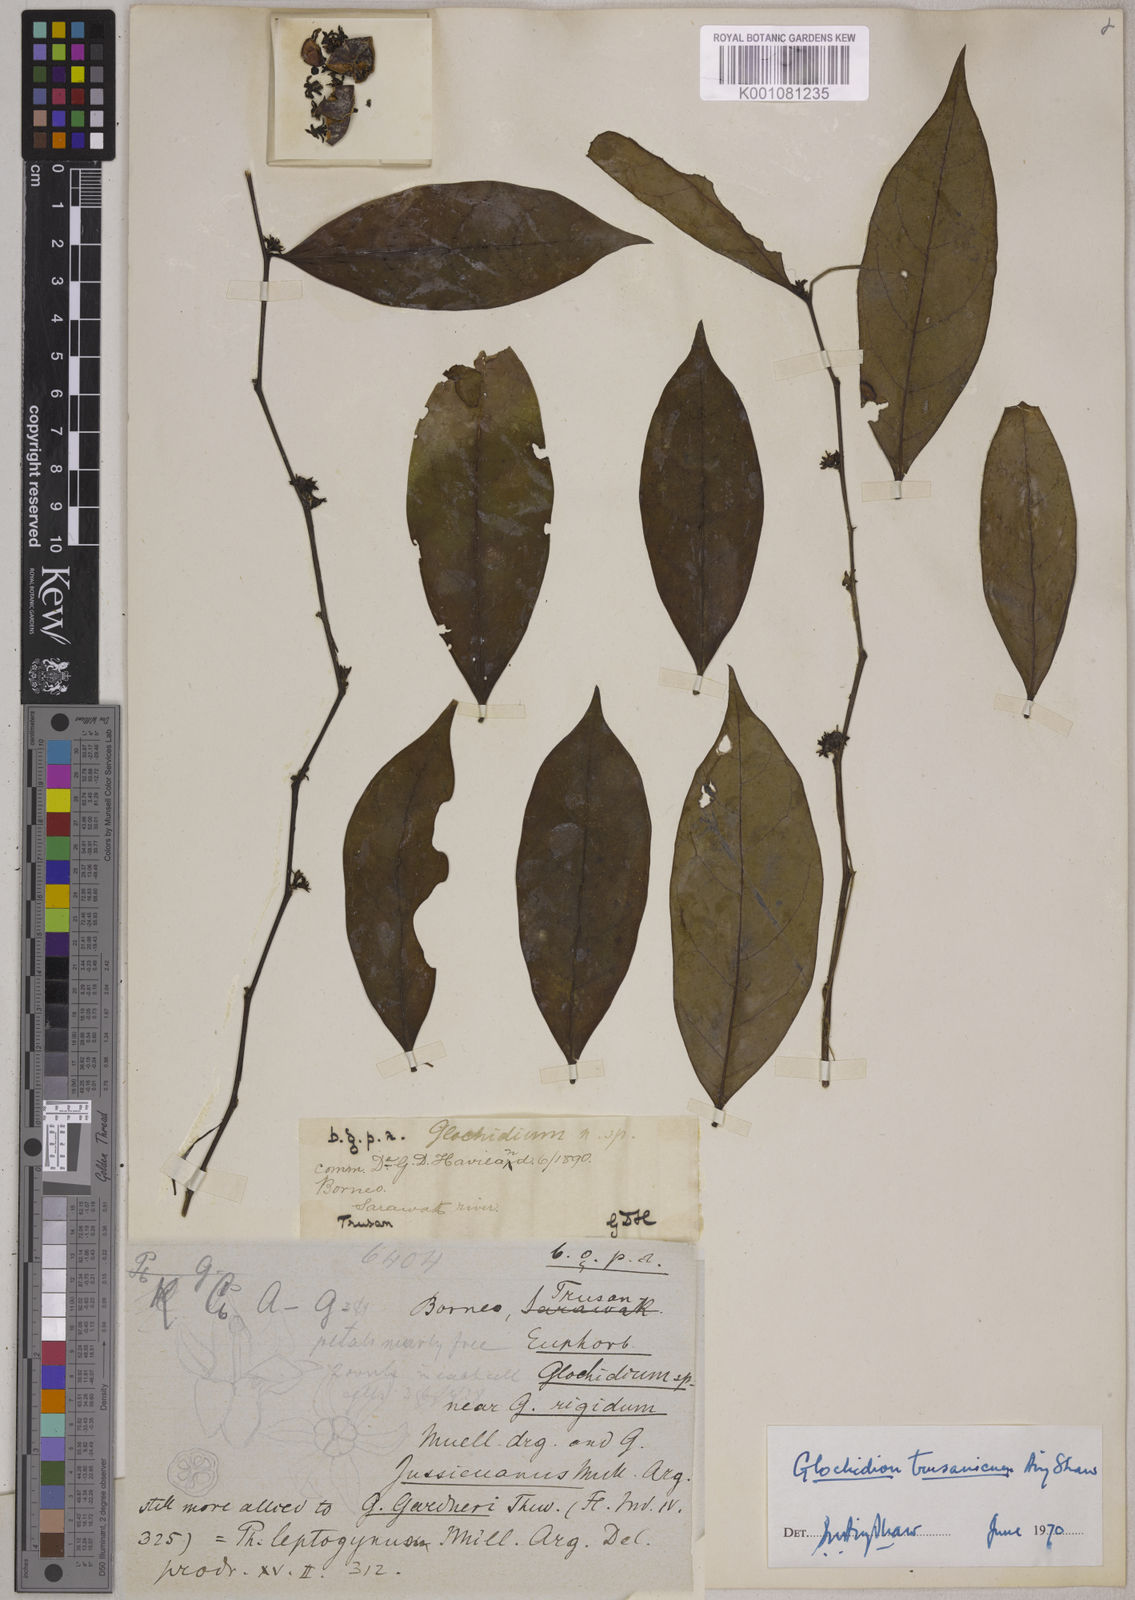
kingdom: Plantae
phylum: Tracheophyta
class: Magnoliopsida
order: Malpighiales
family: Phyllanthaceae
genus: Glochidion
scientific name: Glochidion trusanicum
